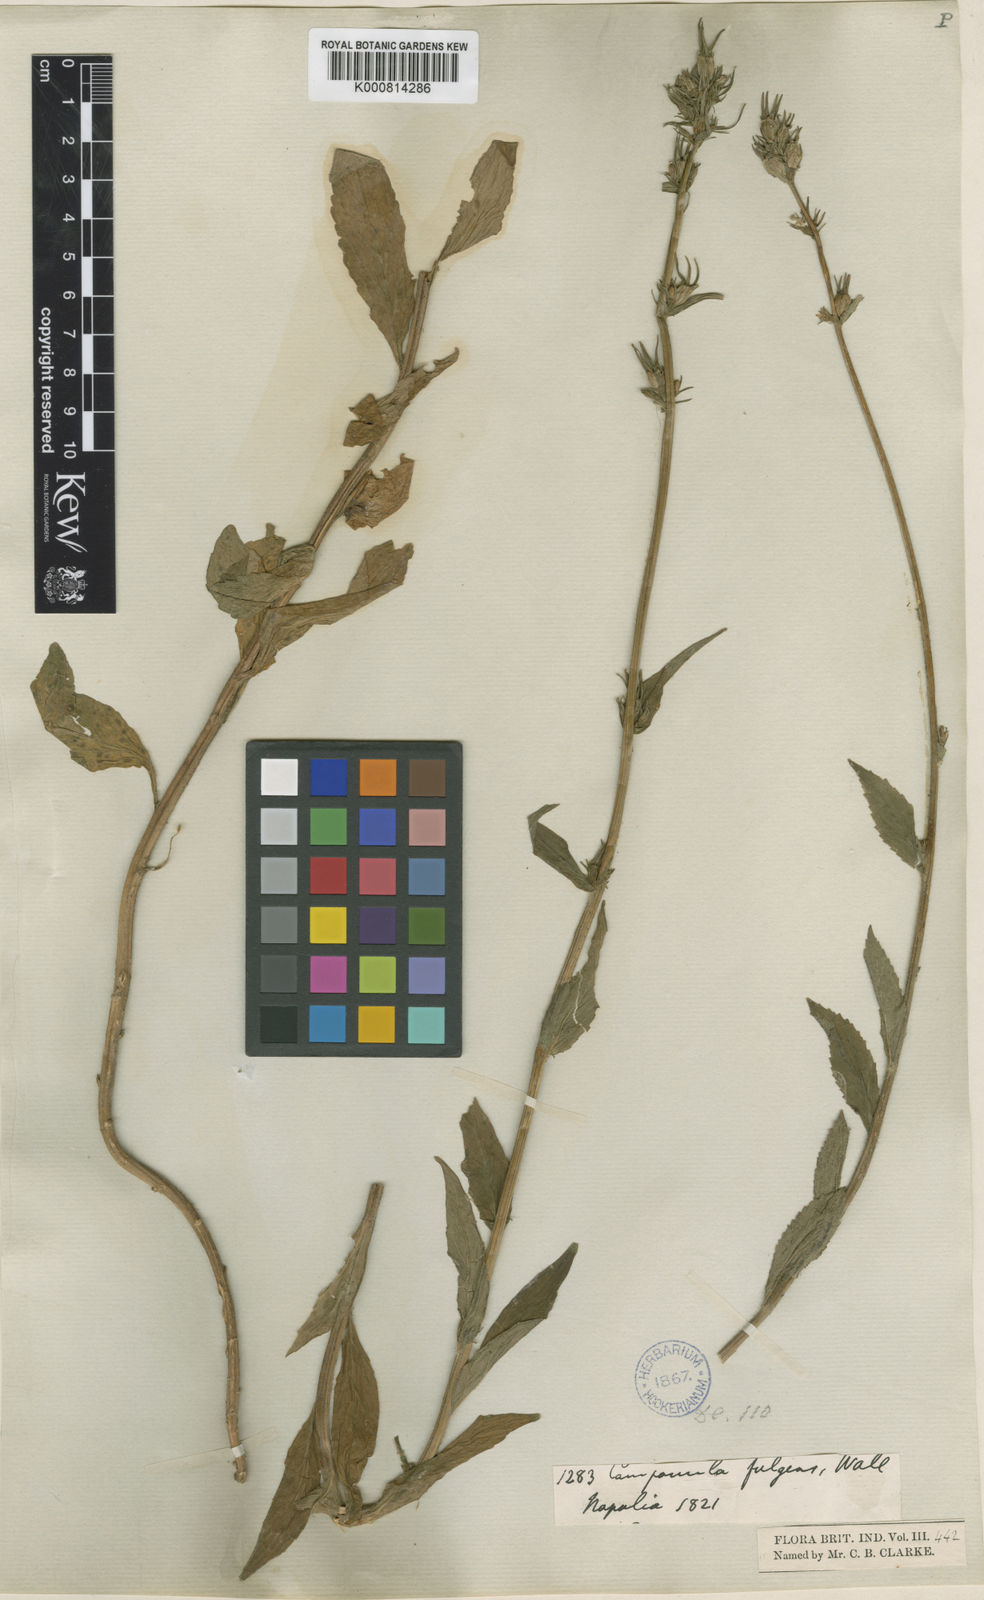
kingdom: Plantae
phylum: Tracheophyta
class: Magnoliopsida
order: Asterales
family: Campanulaceae
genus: Asyneuma
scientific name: Asyneuma fulgens
